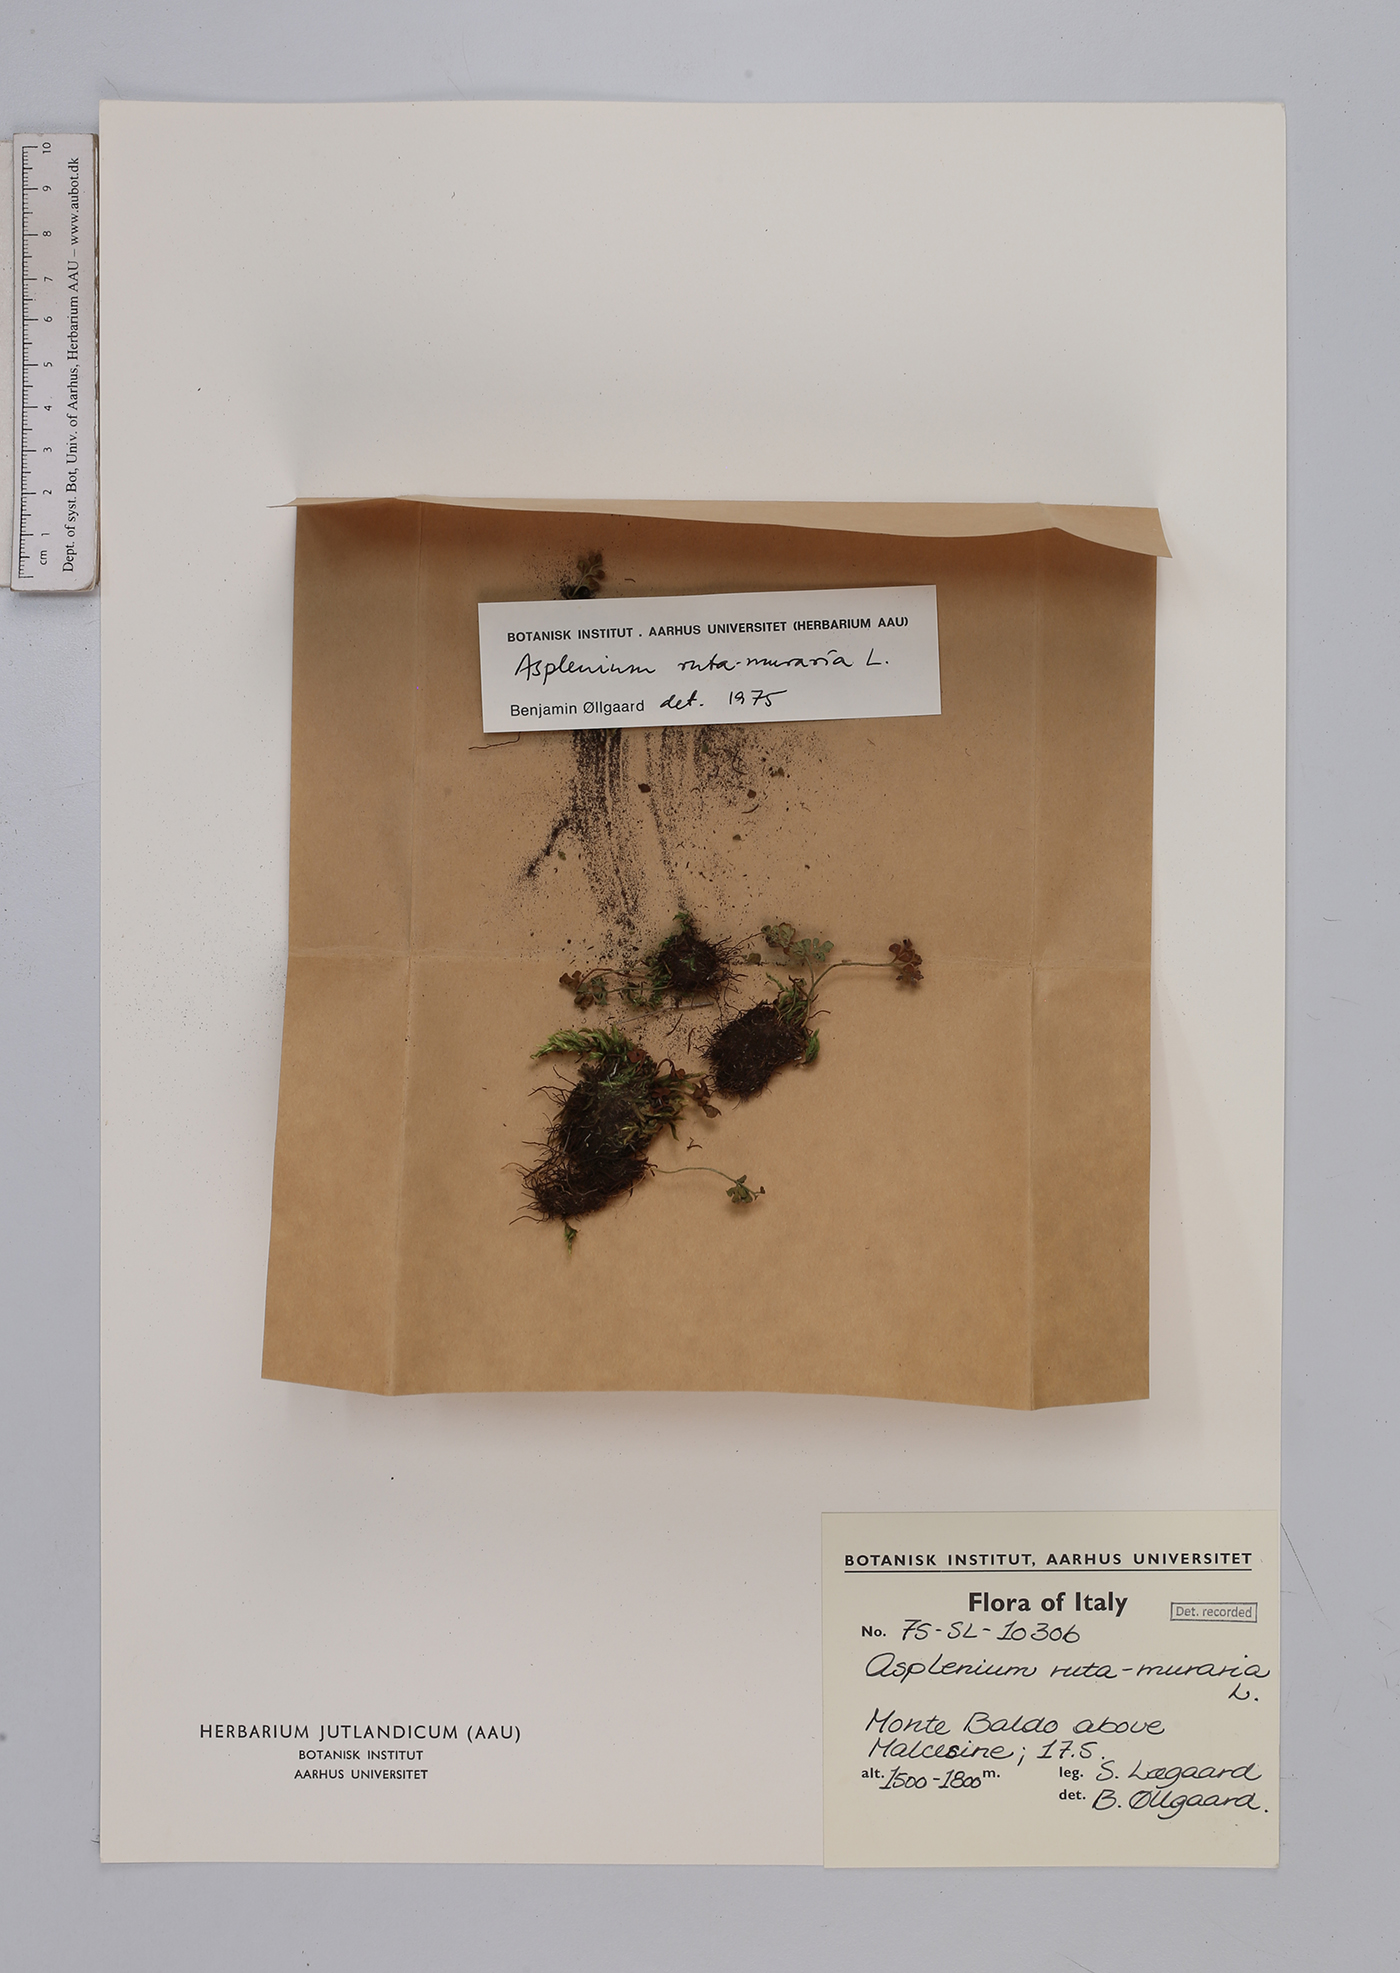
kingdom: Plantae
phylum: Tracheophyta
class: Polypodiopsida
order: Polypodiales
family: Aspleniaceae
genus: Asplenium
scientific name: Asplenium ruta-muraria
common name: Wall-rue
